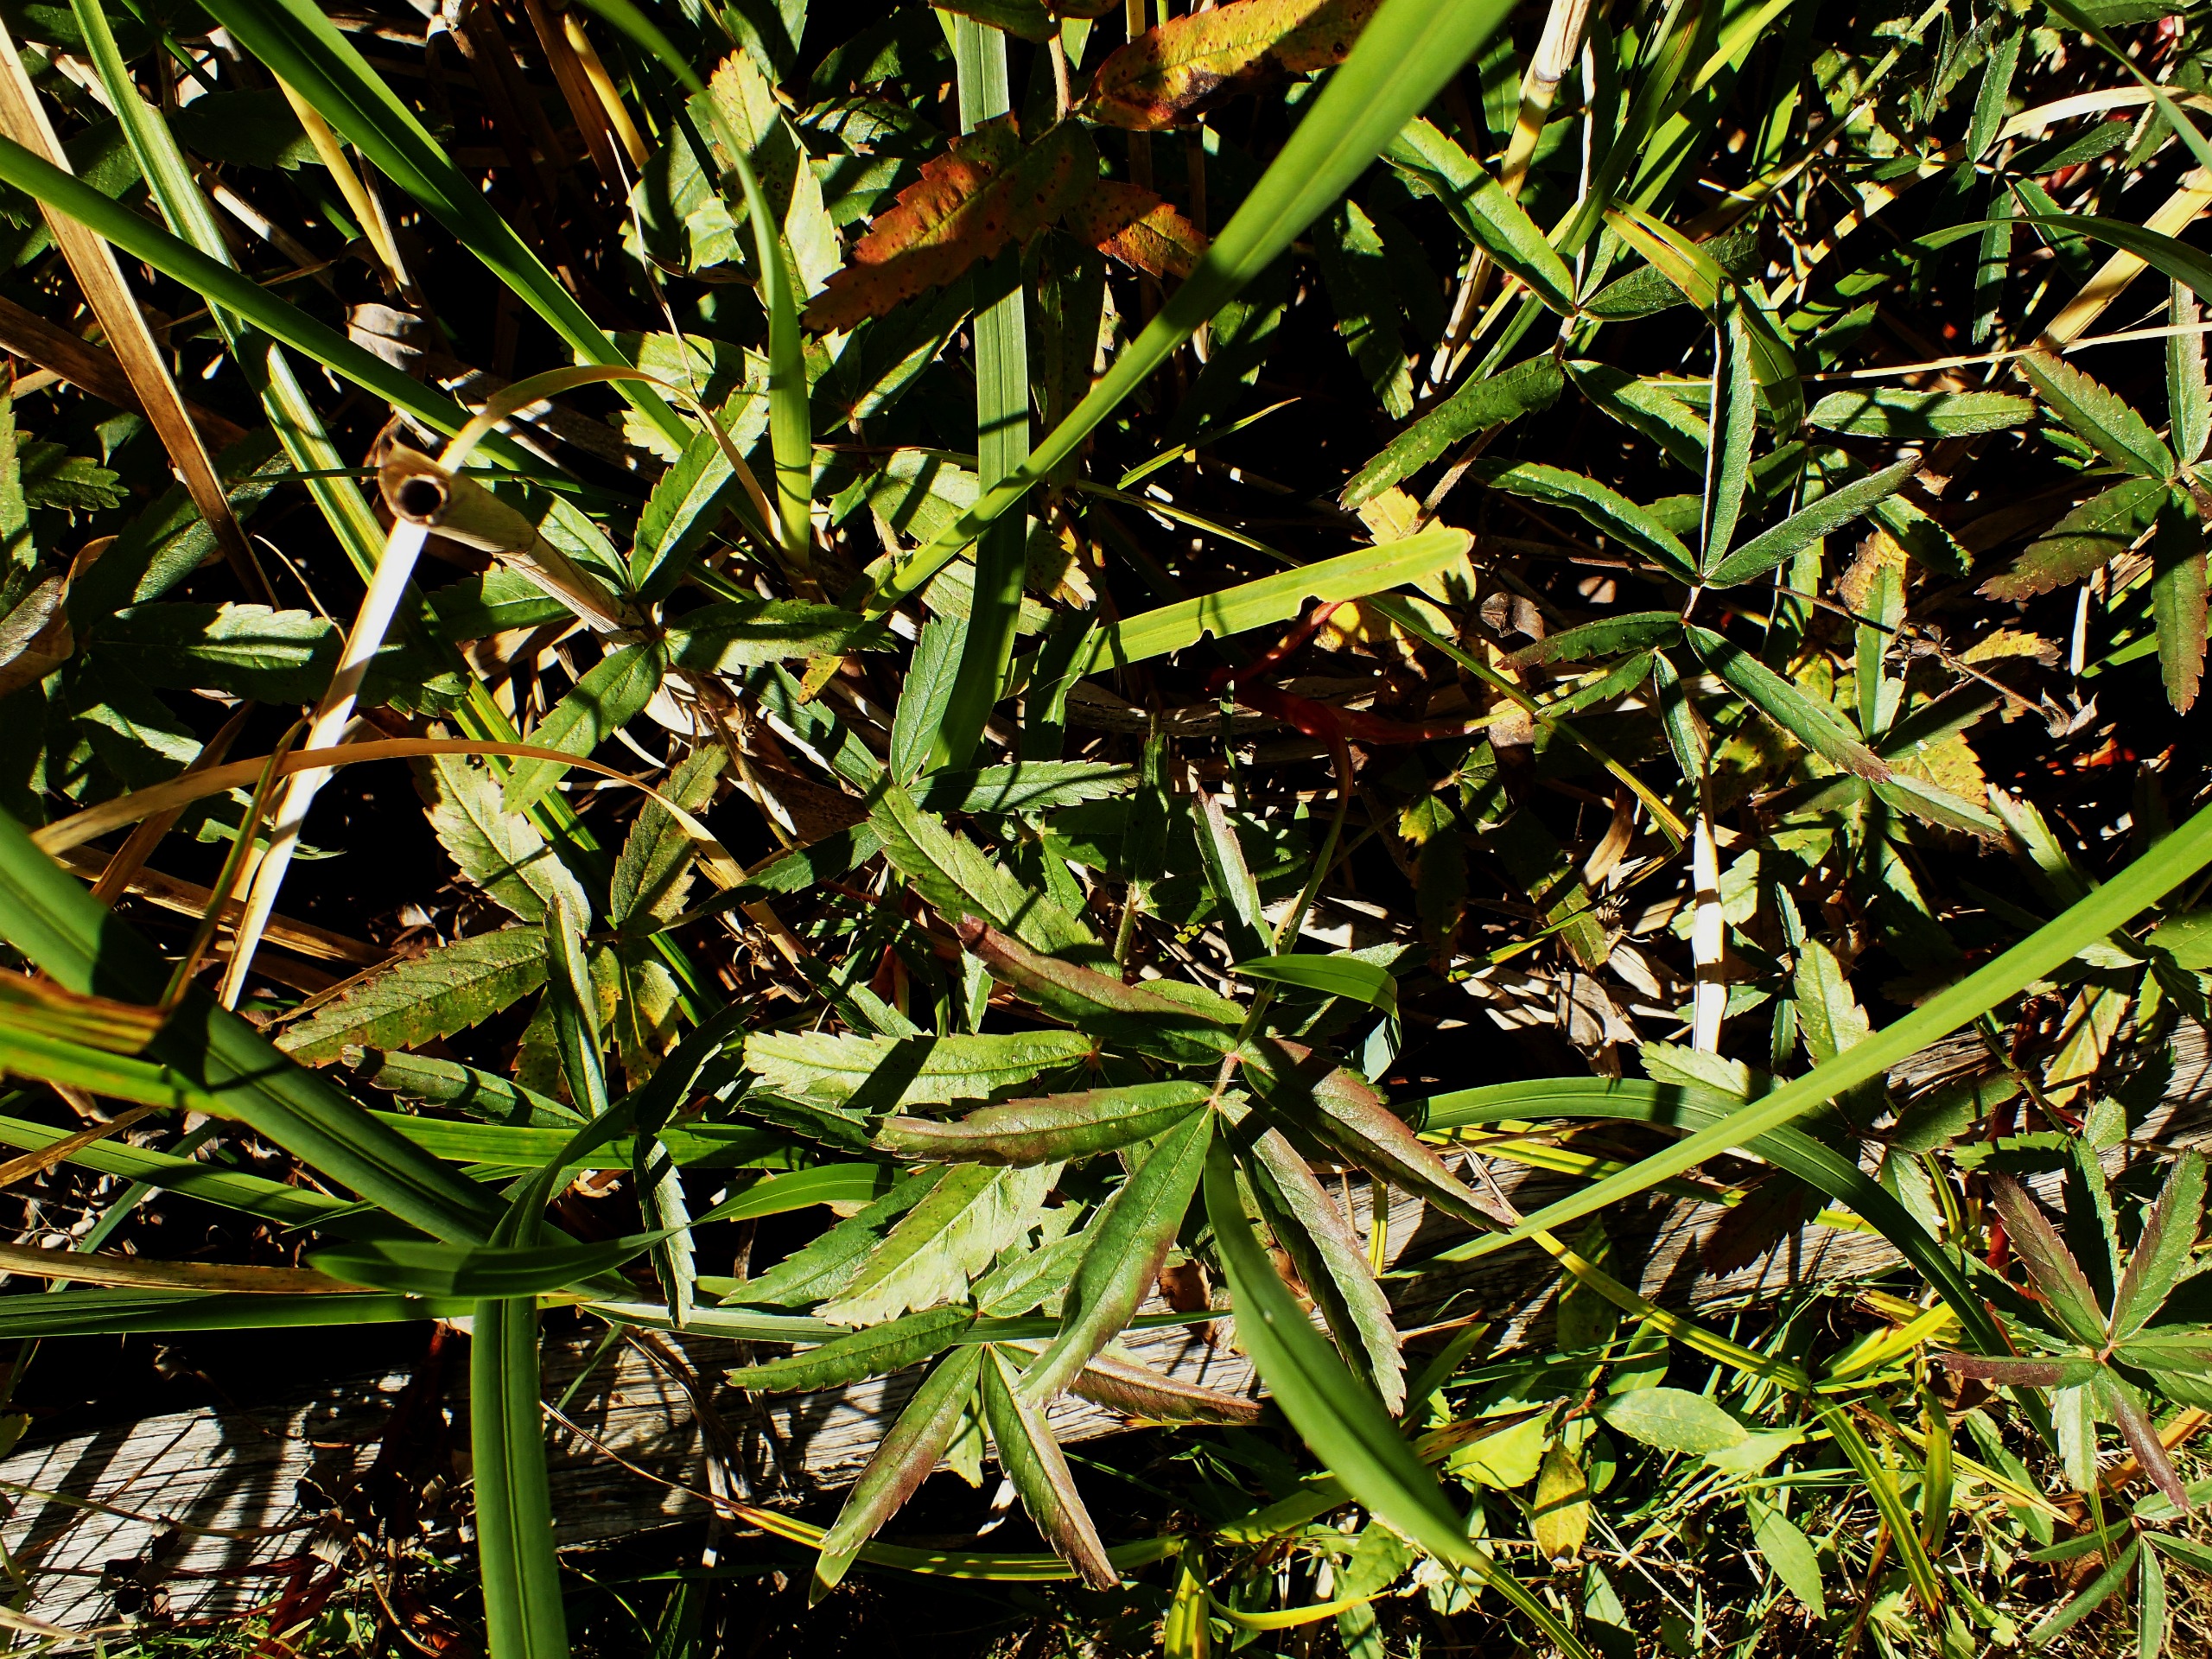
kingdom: Plantae
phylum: Tracheophyta
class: Magnoliopsida
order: Rosales
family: Rosaceae
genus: Comarum
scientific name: Comarum palustre
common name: Kragefod
